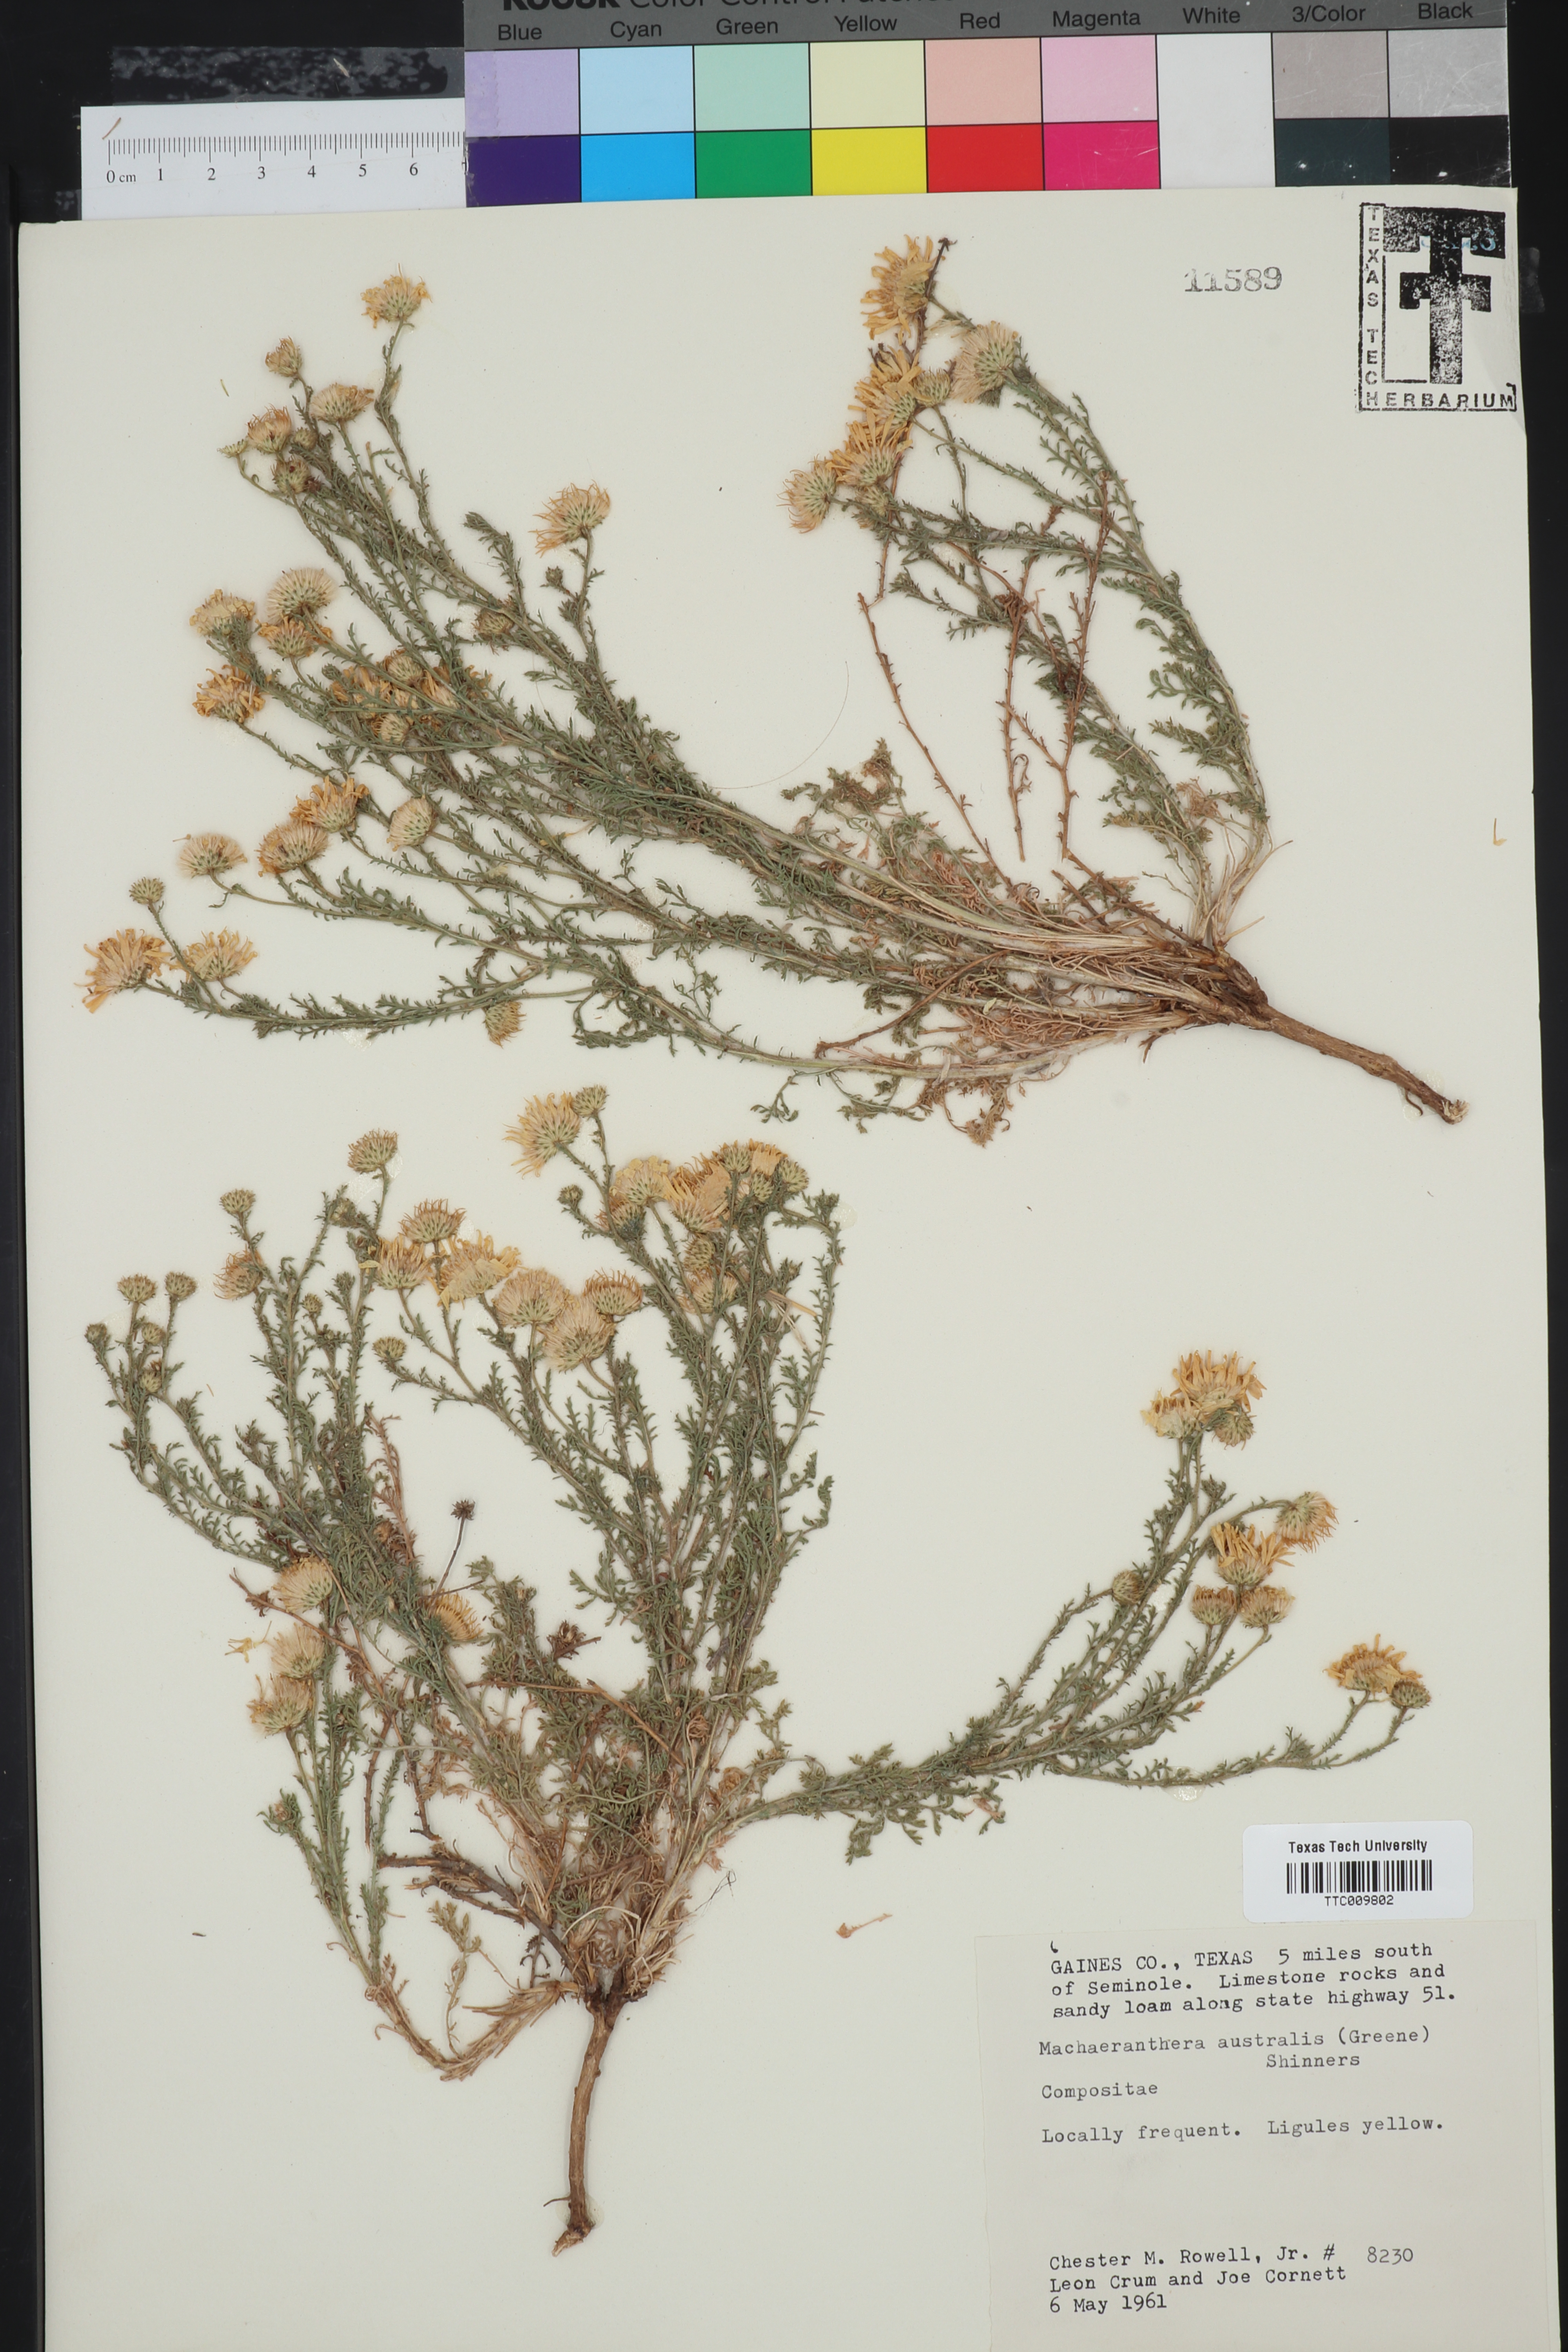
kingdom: Plantae
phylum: Tracheophyta
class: Magnoliopsida
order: Asterales
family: Asteraceae
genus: Xanthisma
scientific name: Xanthisma spinulosum
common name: Spiny goldenweed
